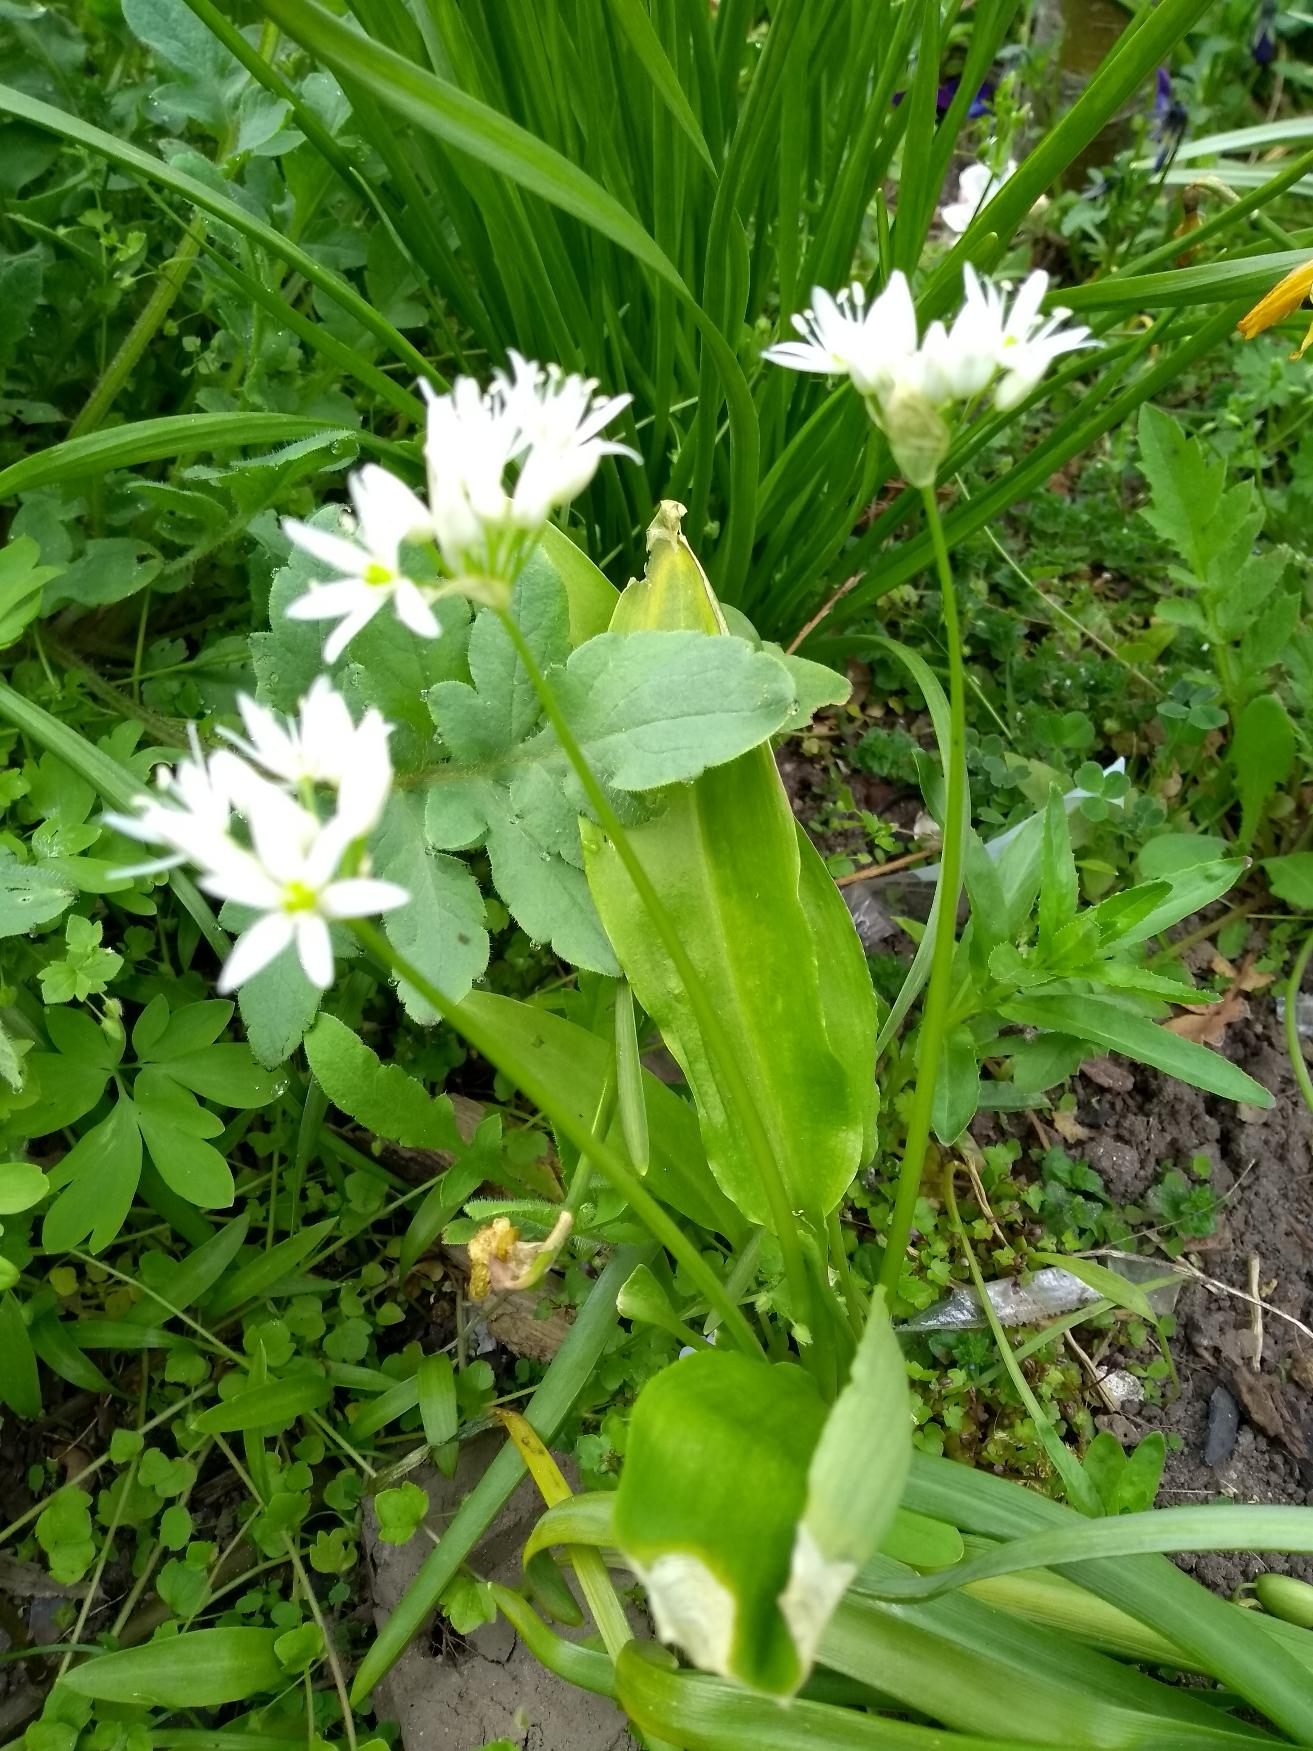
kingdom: Plantae
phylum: Tracheophyta
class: Liliopsida
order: Asparagales
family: Amaryllidaceae
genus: Allium
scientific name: Allium ursinum
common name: Rams-løg
